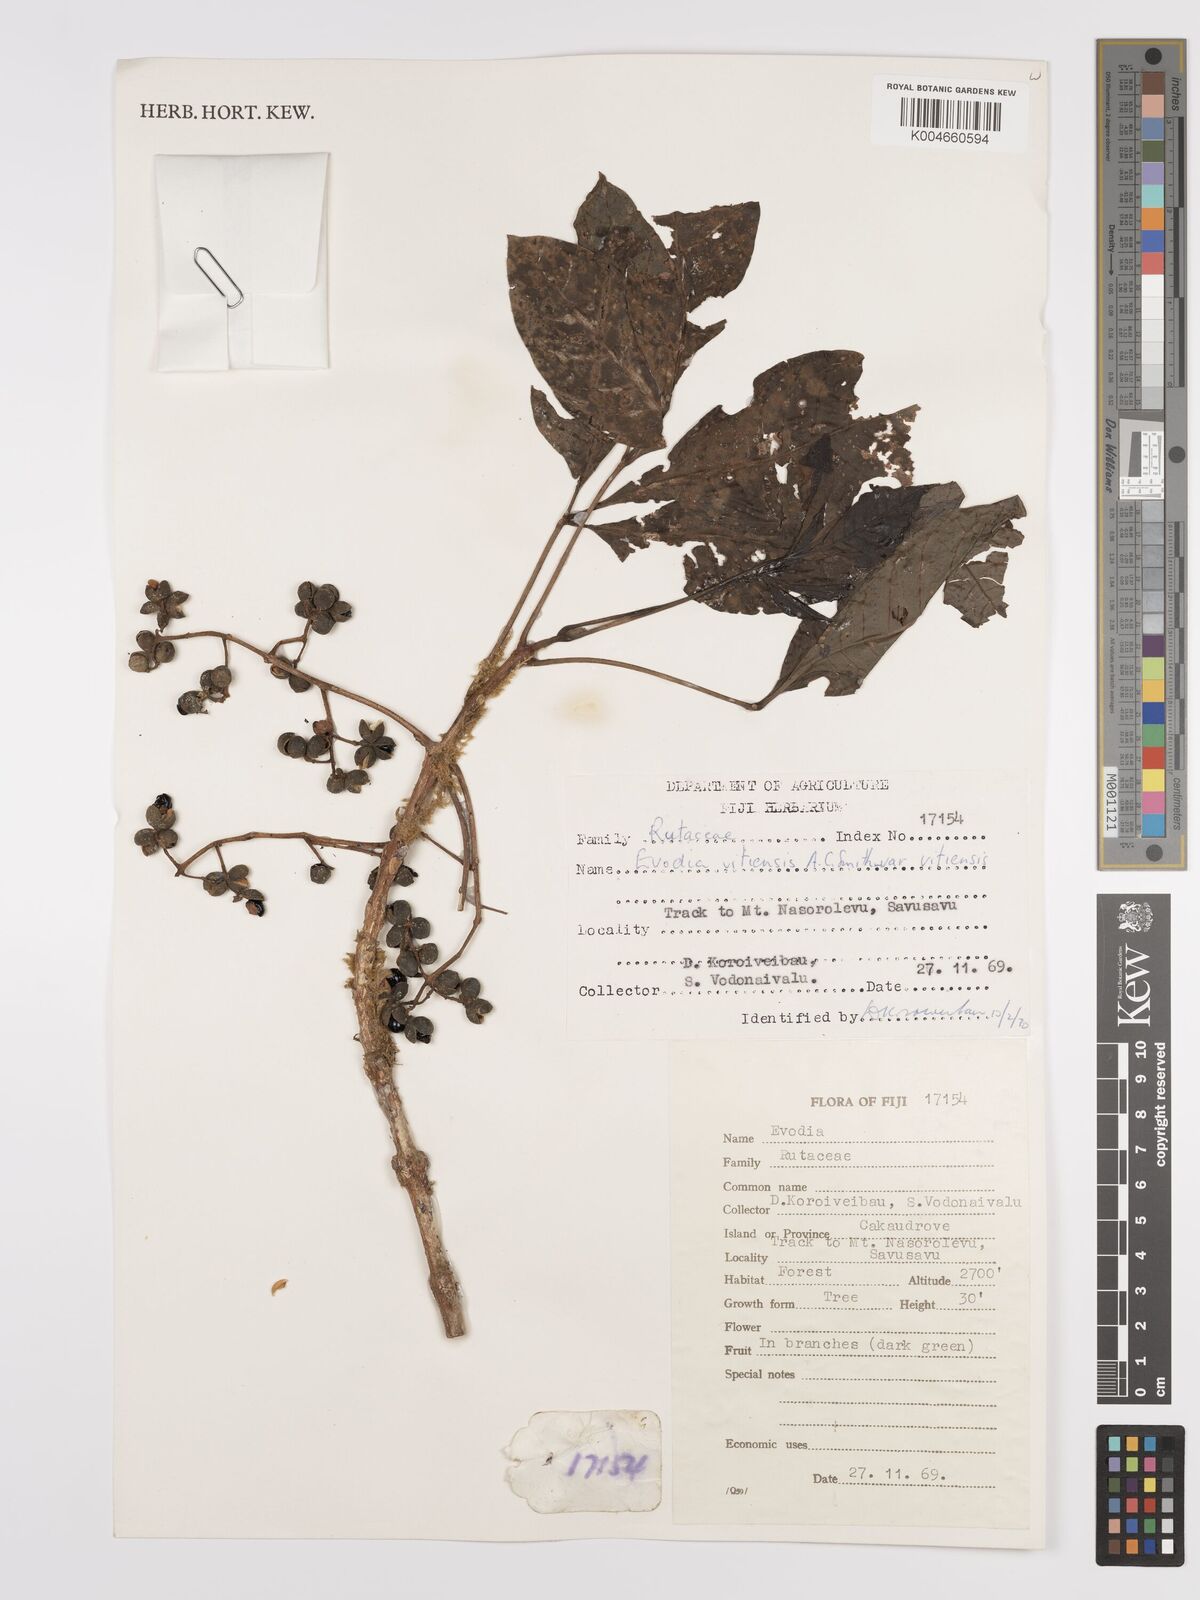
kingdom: Plantae
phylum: Tracheophyta
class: Magnoliopsida
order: Sapindales
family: Rutaceae
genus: Melicope
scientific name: Melicope cucullata
